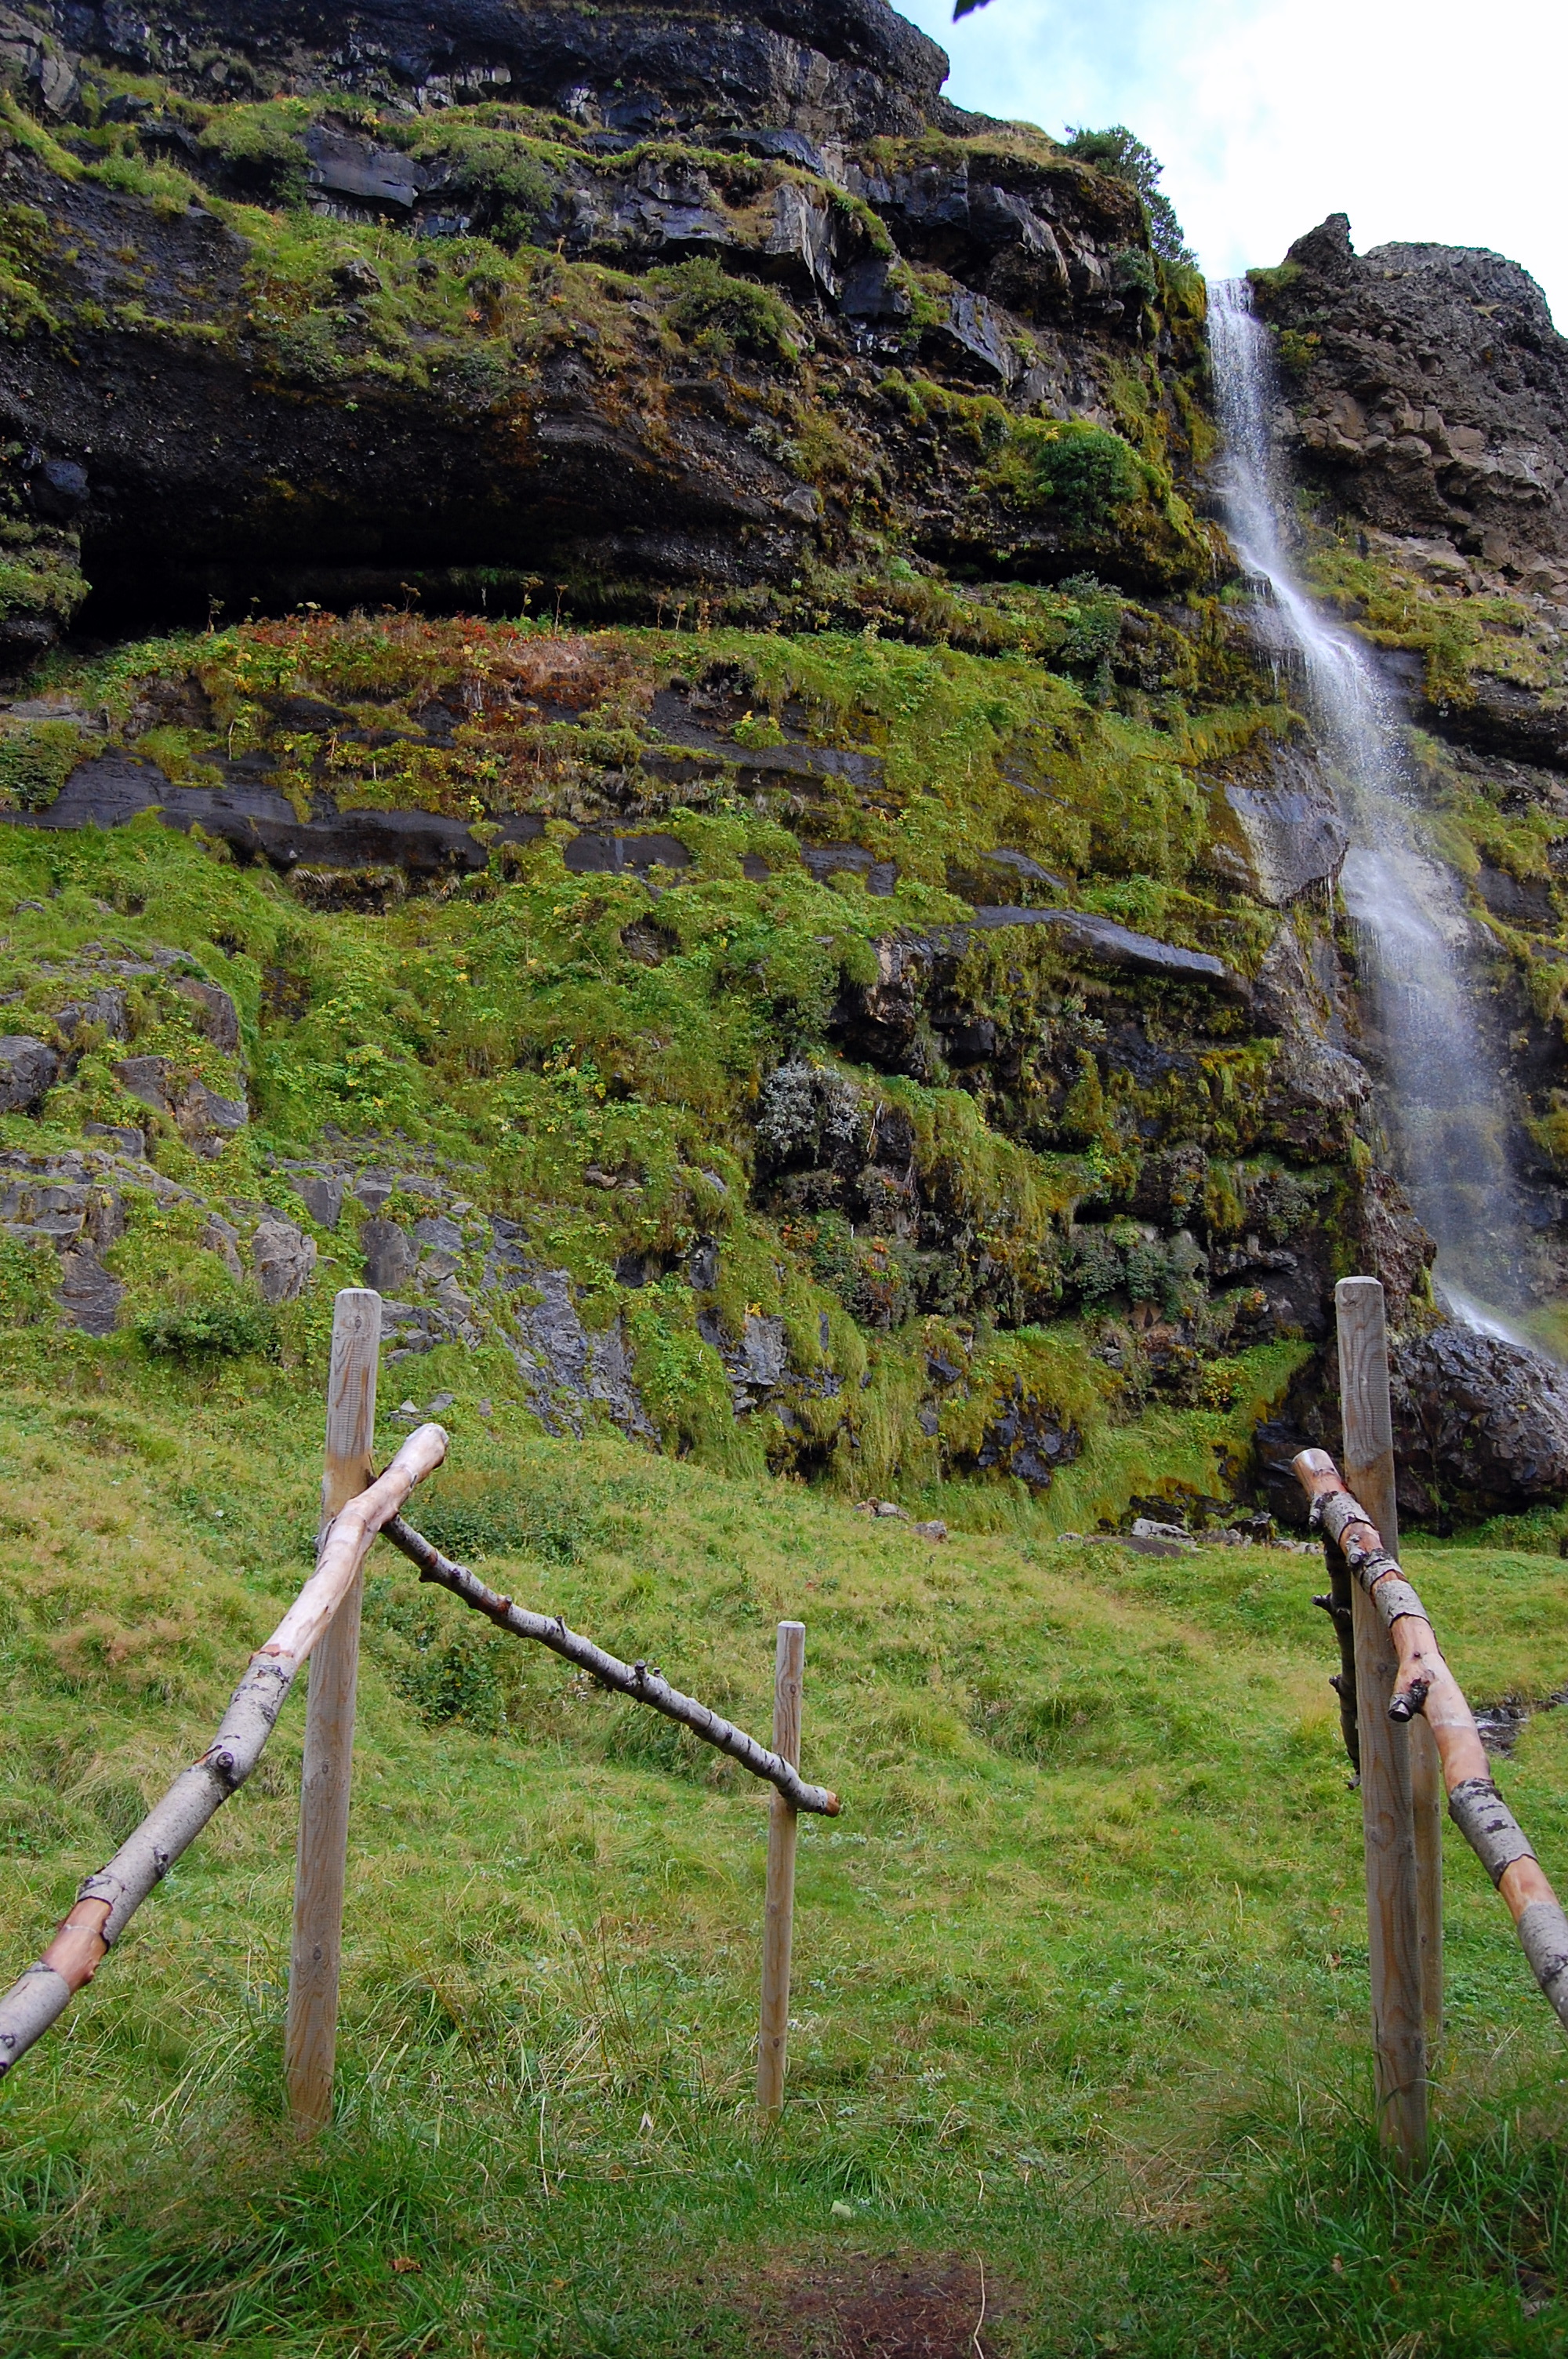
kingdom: Plantae
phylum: Tracheophyta
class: Magnoliopsida
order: Saxifragales
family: Crassulaceae
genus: Rhodiola
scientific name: Rhodiola rosea
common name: Roseroot
